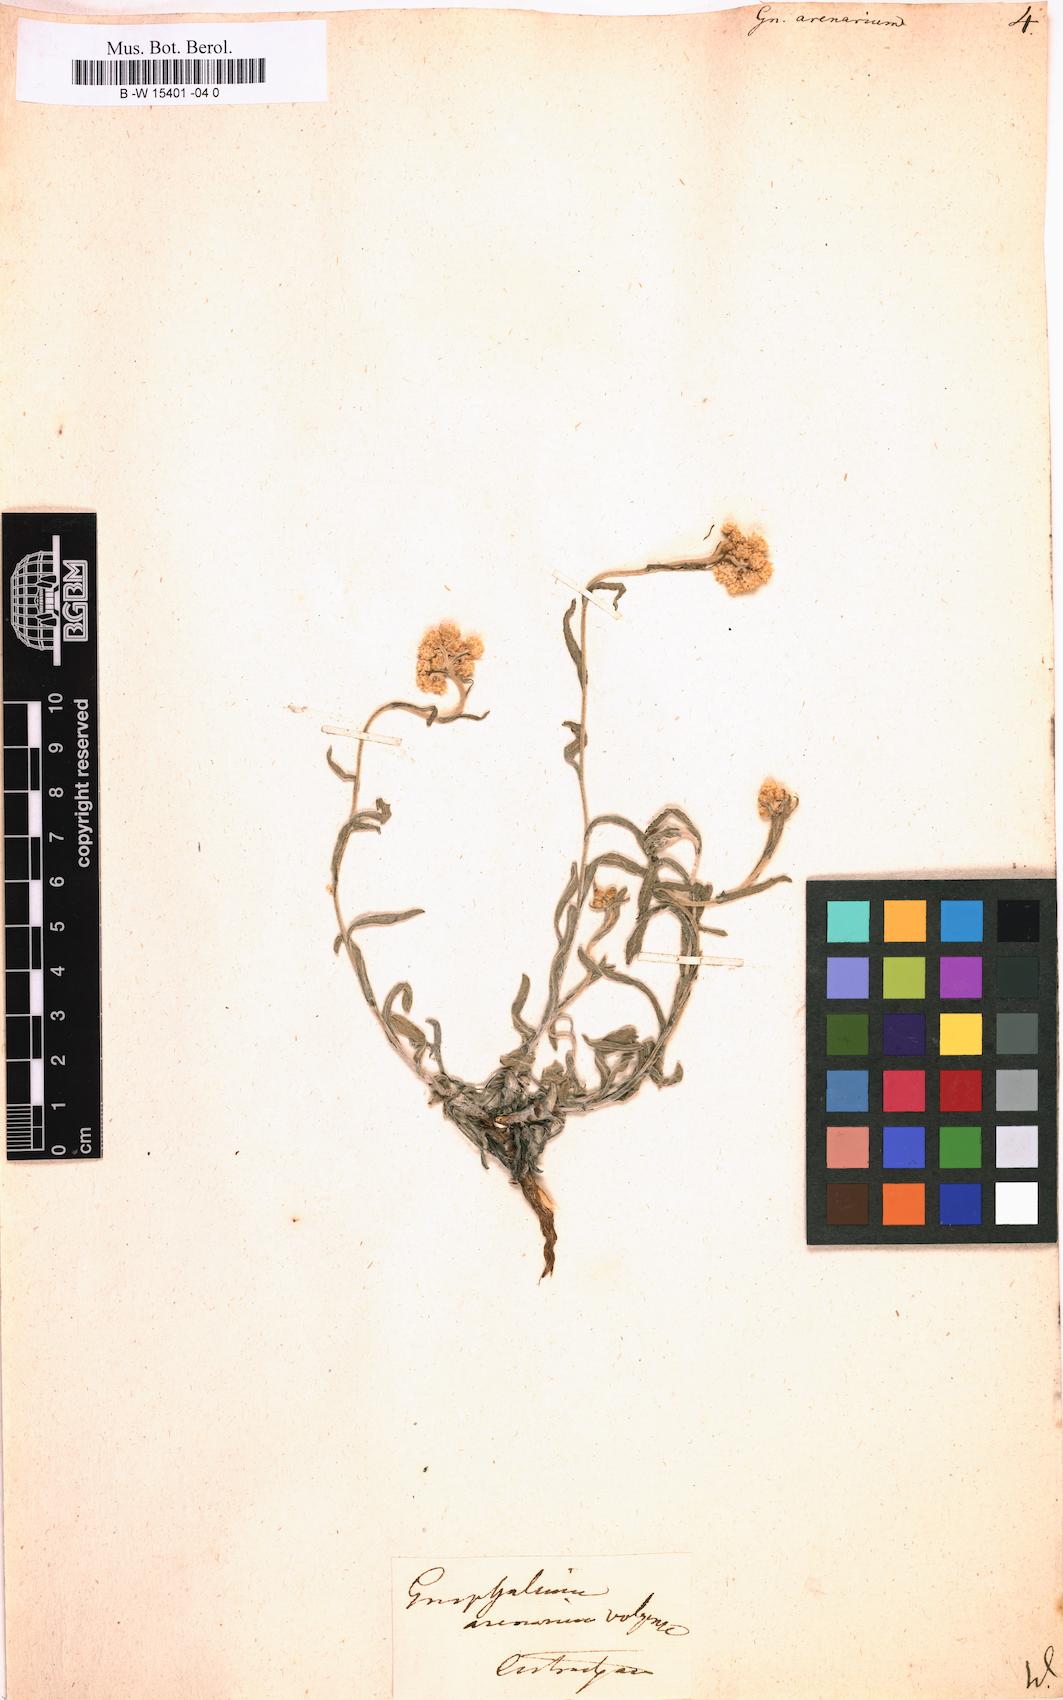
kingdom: Plantae
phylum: Tracheophyta
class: Magnoliopsida
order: Asterales
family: Asteraceae
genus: Helichrysum
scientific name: Helichrysum arenarium
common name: Strawflower
